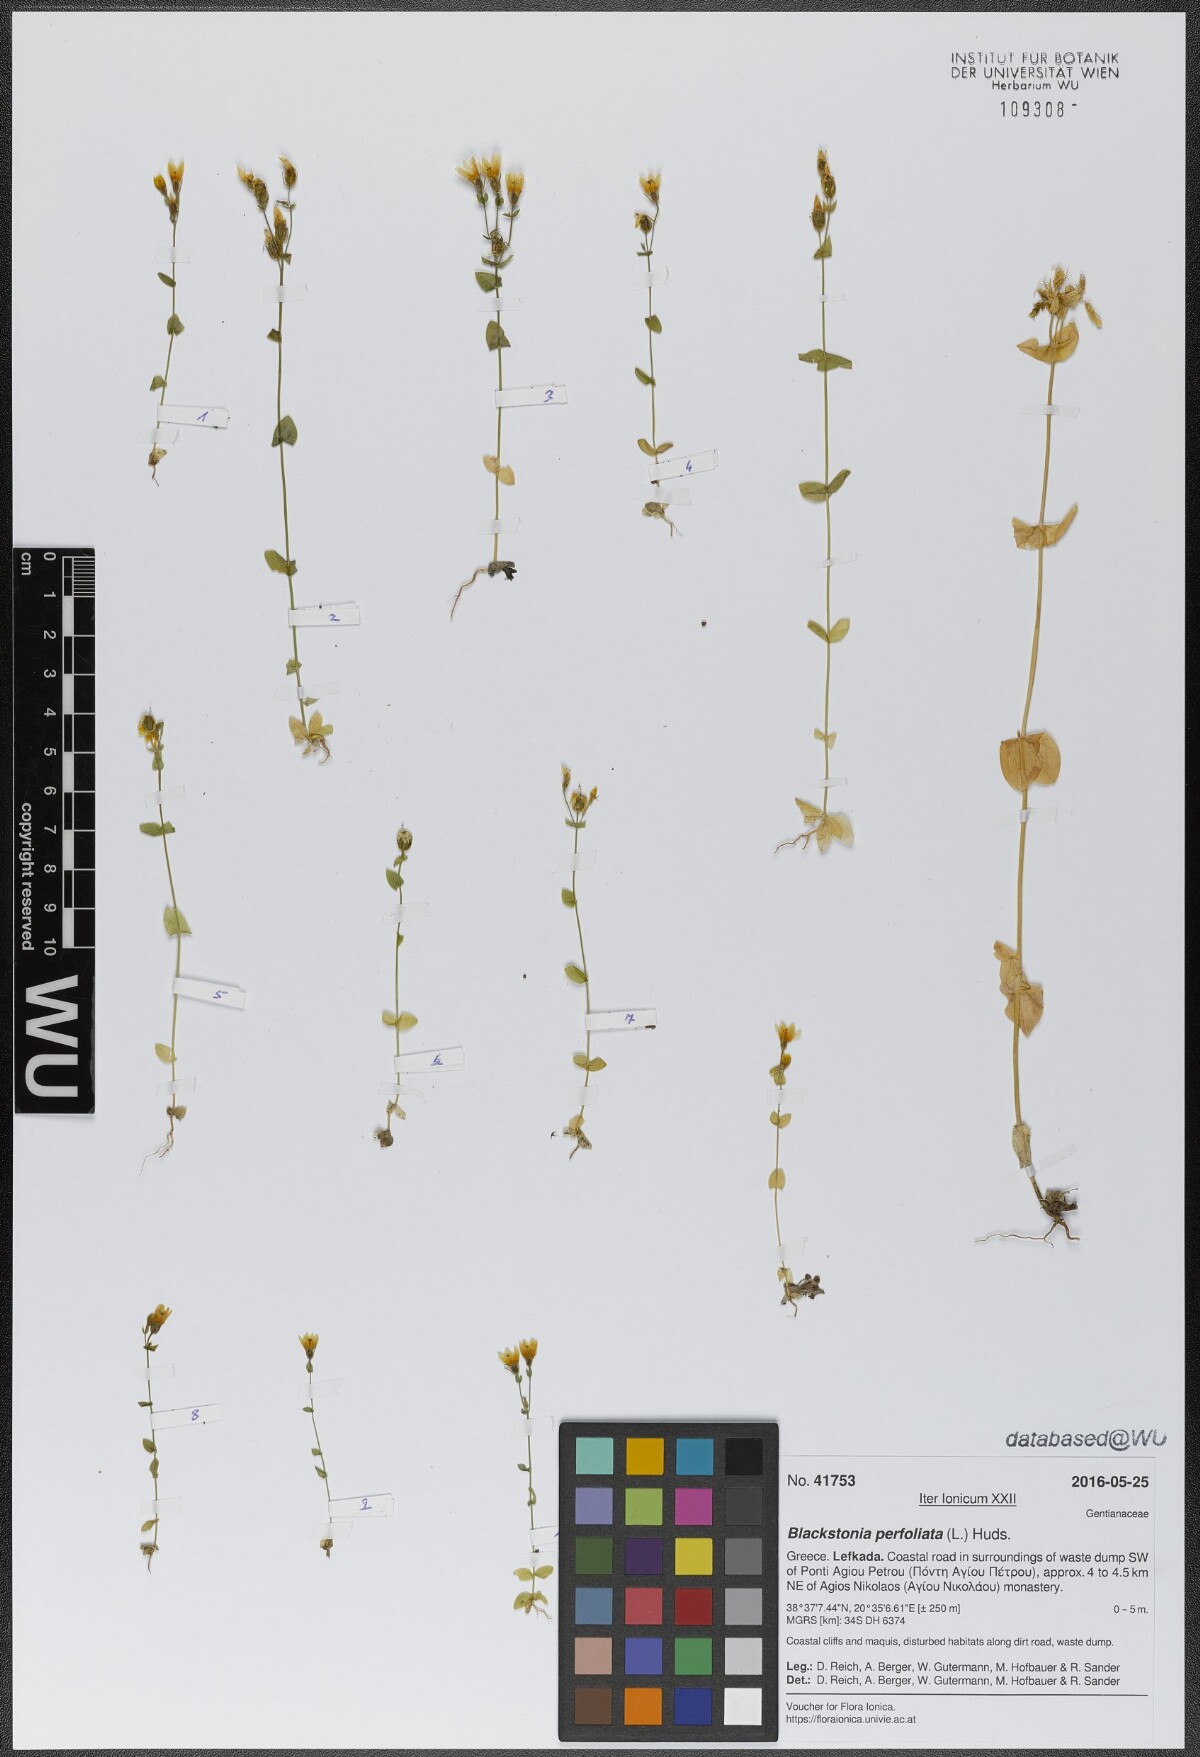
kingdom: Plantae
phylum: Tracheophyta
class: Magnoliopsida
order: Gentianales
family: Gentianaceae
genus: Blackstonia
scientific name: Blackstonia perfoliata
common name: Yellow-wort
